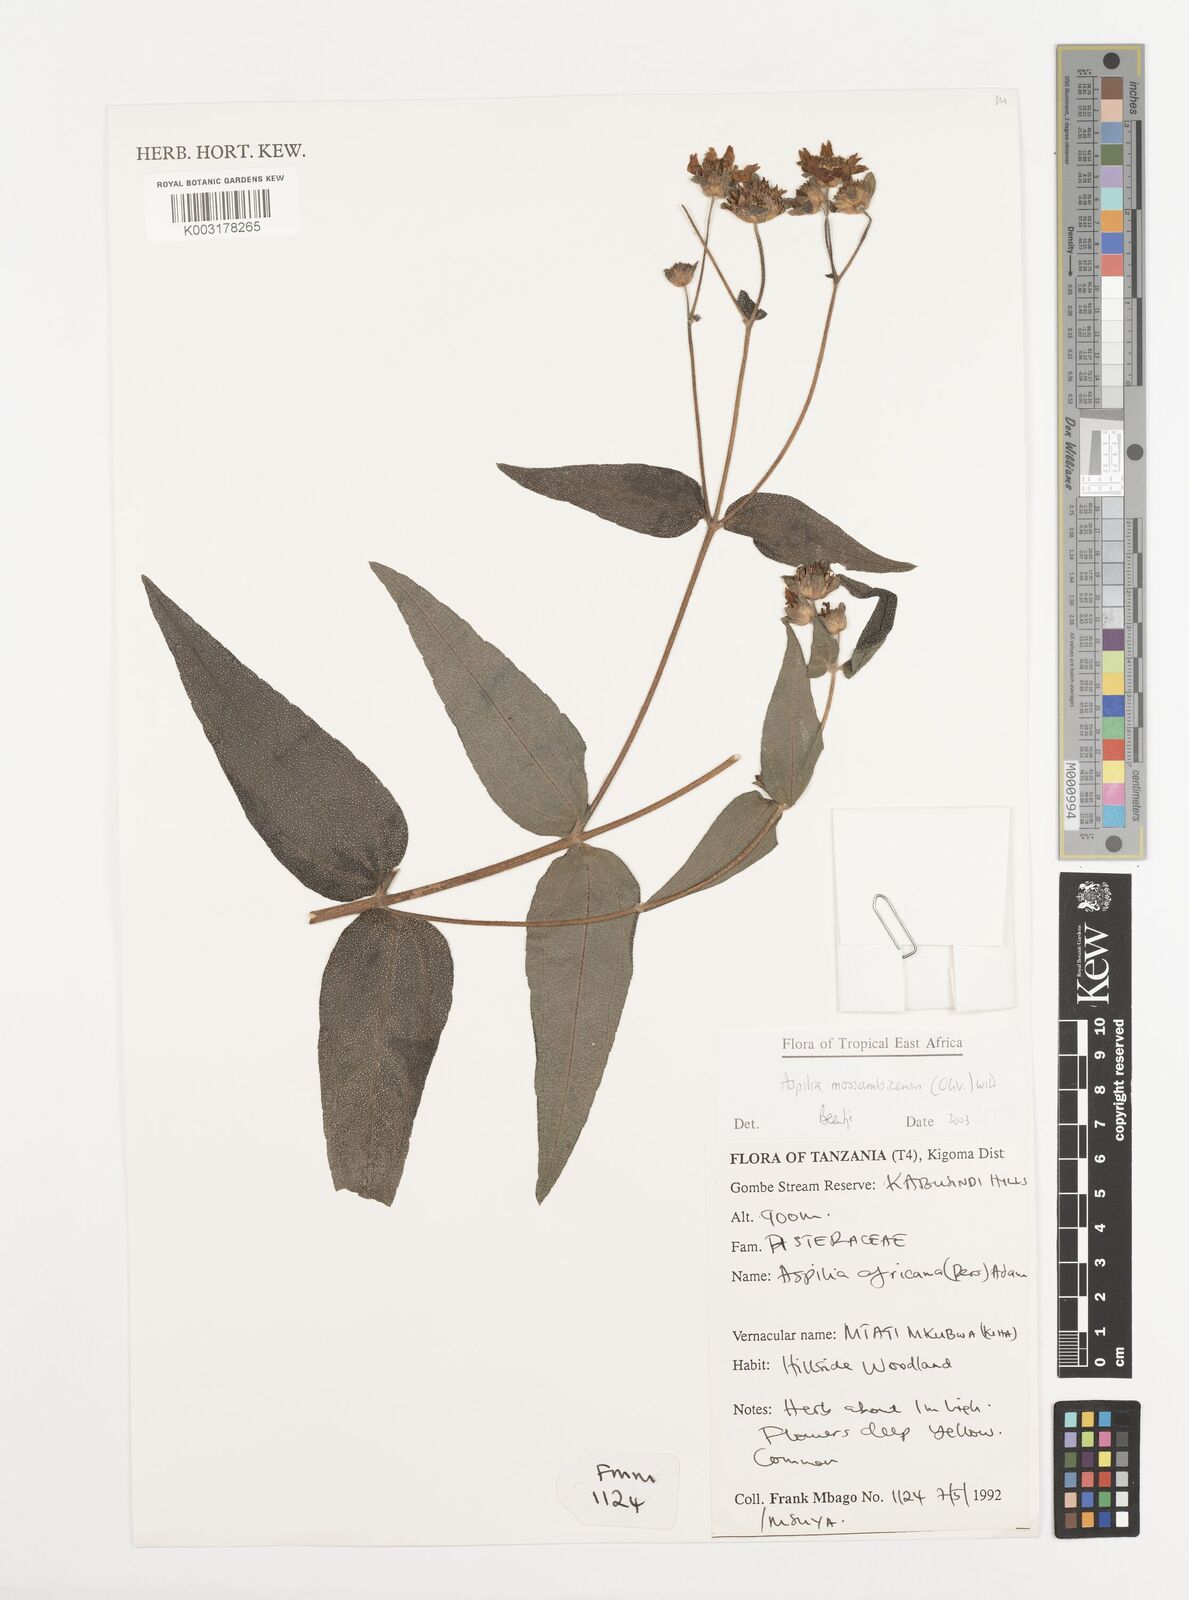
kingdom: Plantae
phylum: Tracheophyta
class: Magnoliopsida
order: Asterales
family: Asteraceae
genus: Aspilia
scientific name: Aspilia mossambicensis
